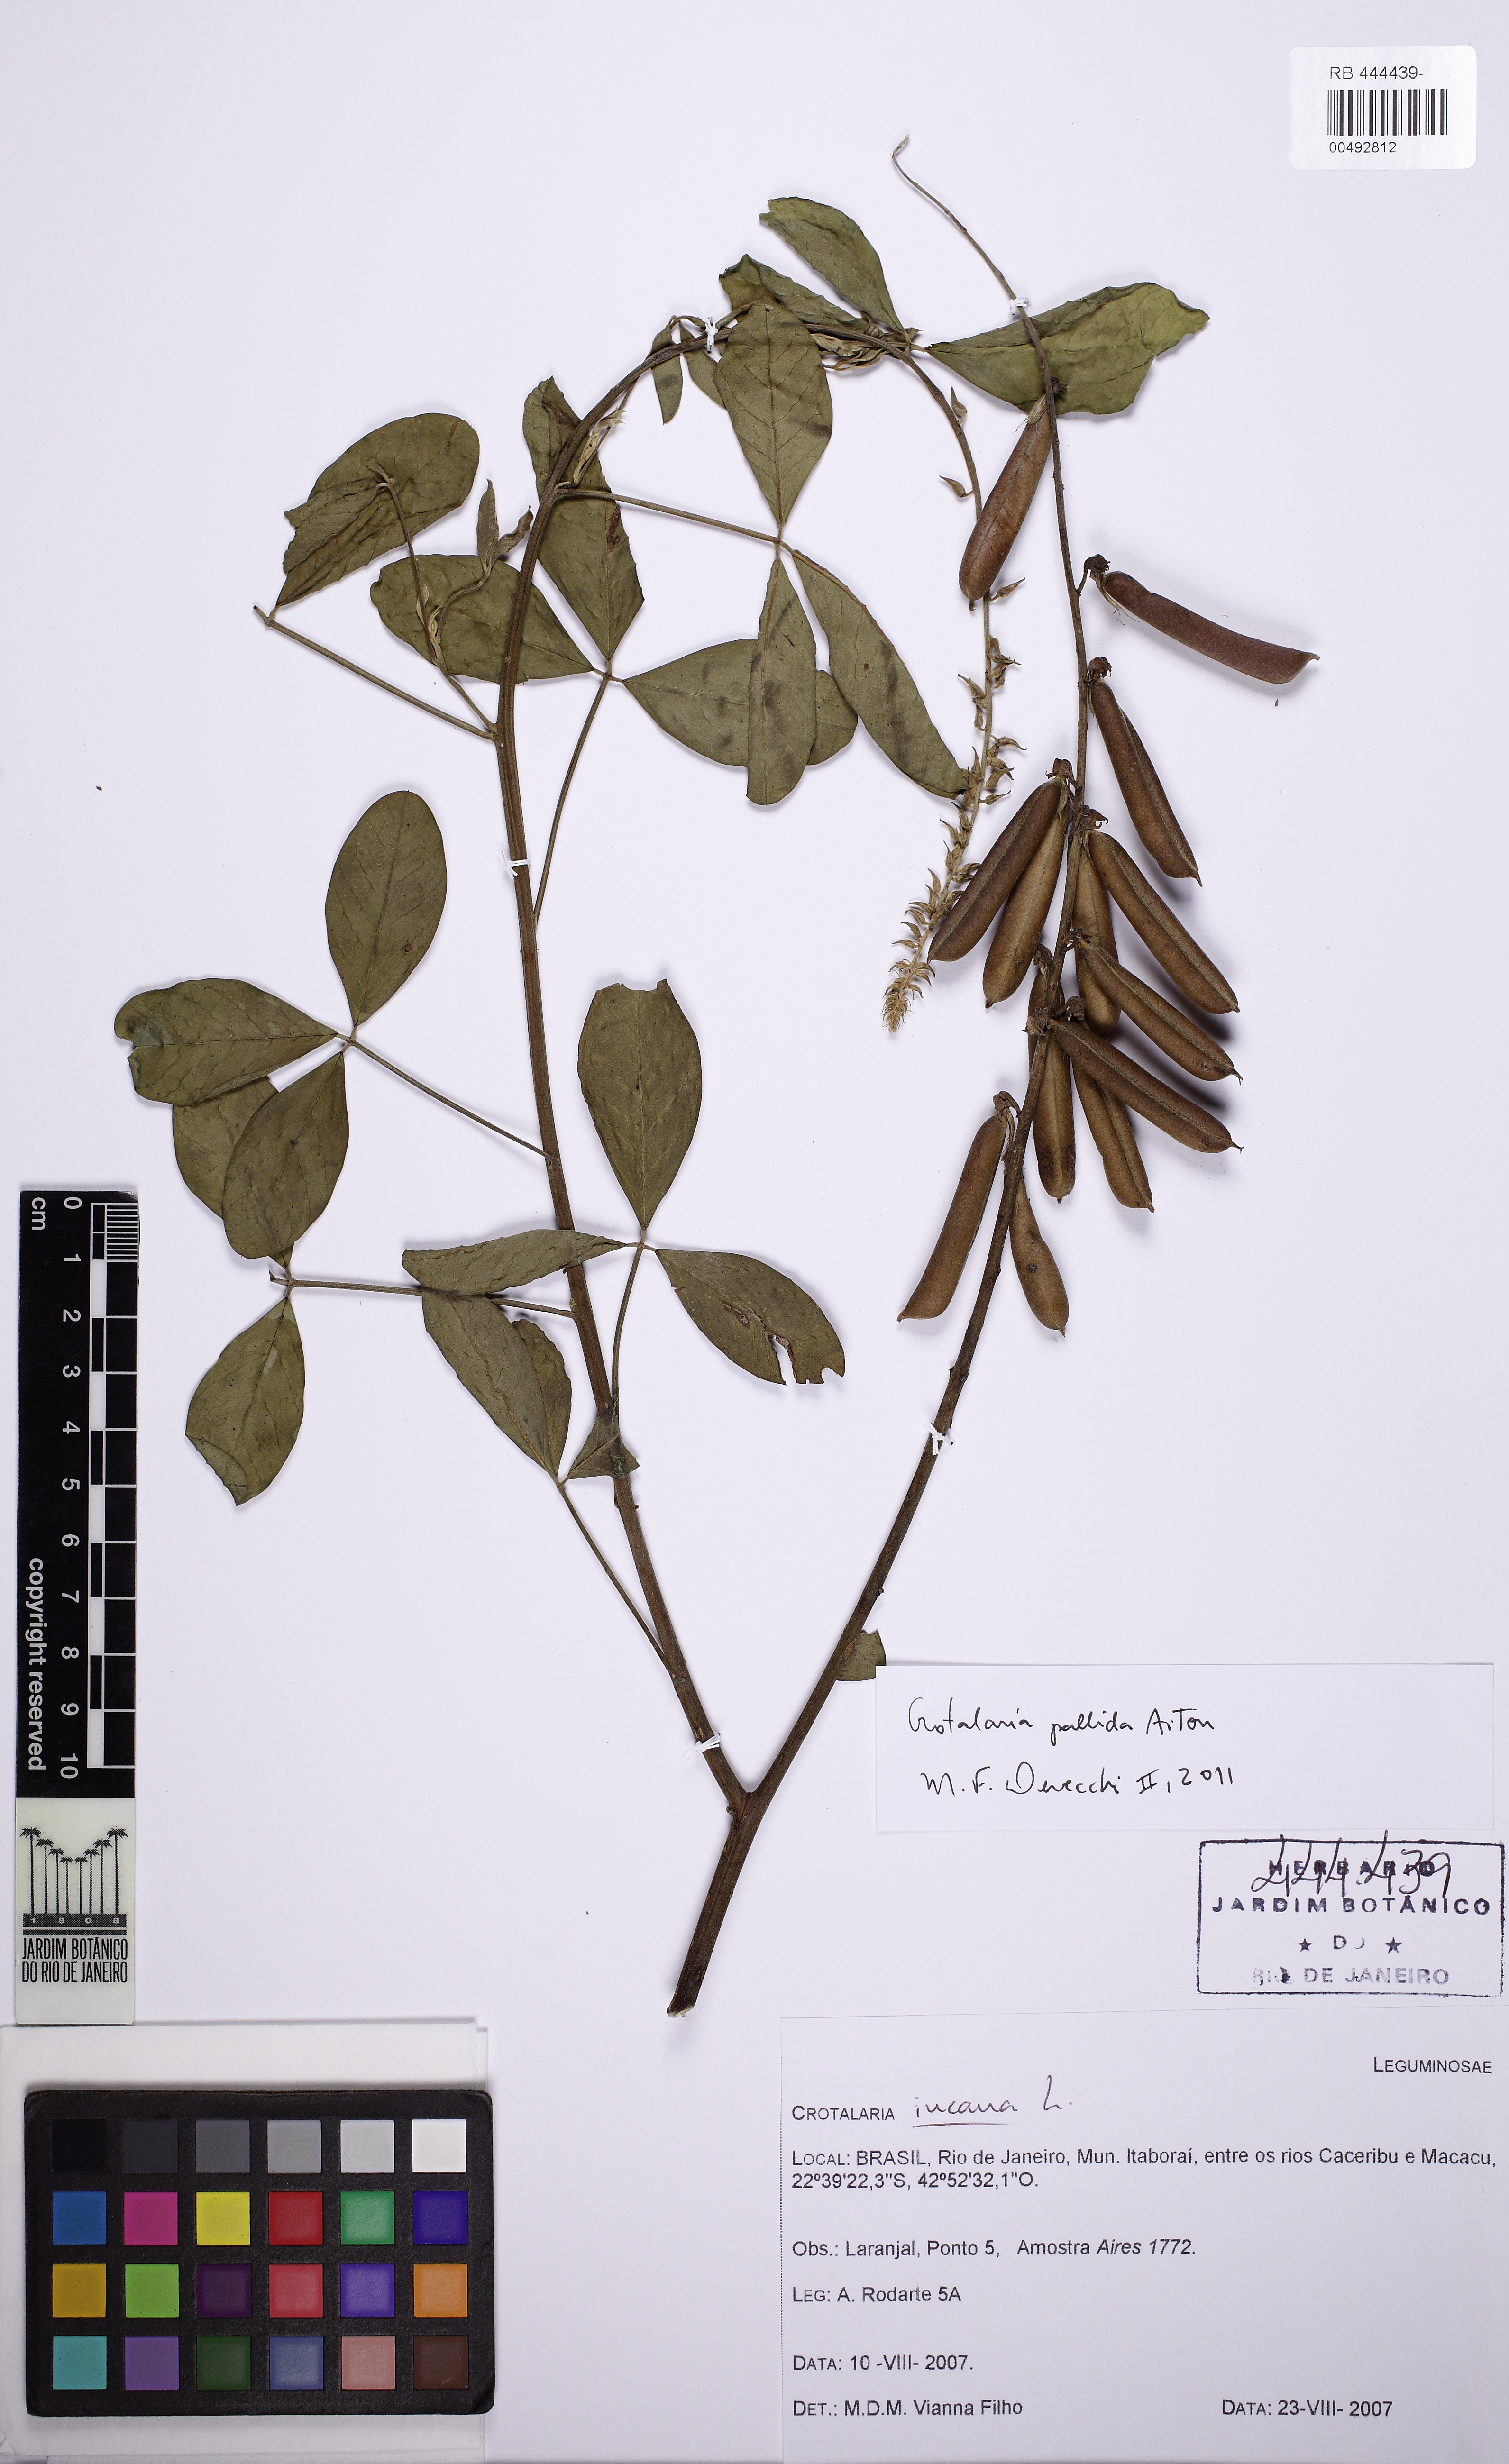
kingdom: Plantae
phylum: Tracheophyta
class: Magnoliopsida
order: Fabales
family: Fabaceae
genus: Crotalaria
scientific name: Crotalaria pallida
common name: Smooth rattlebox
